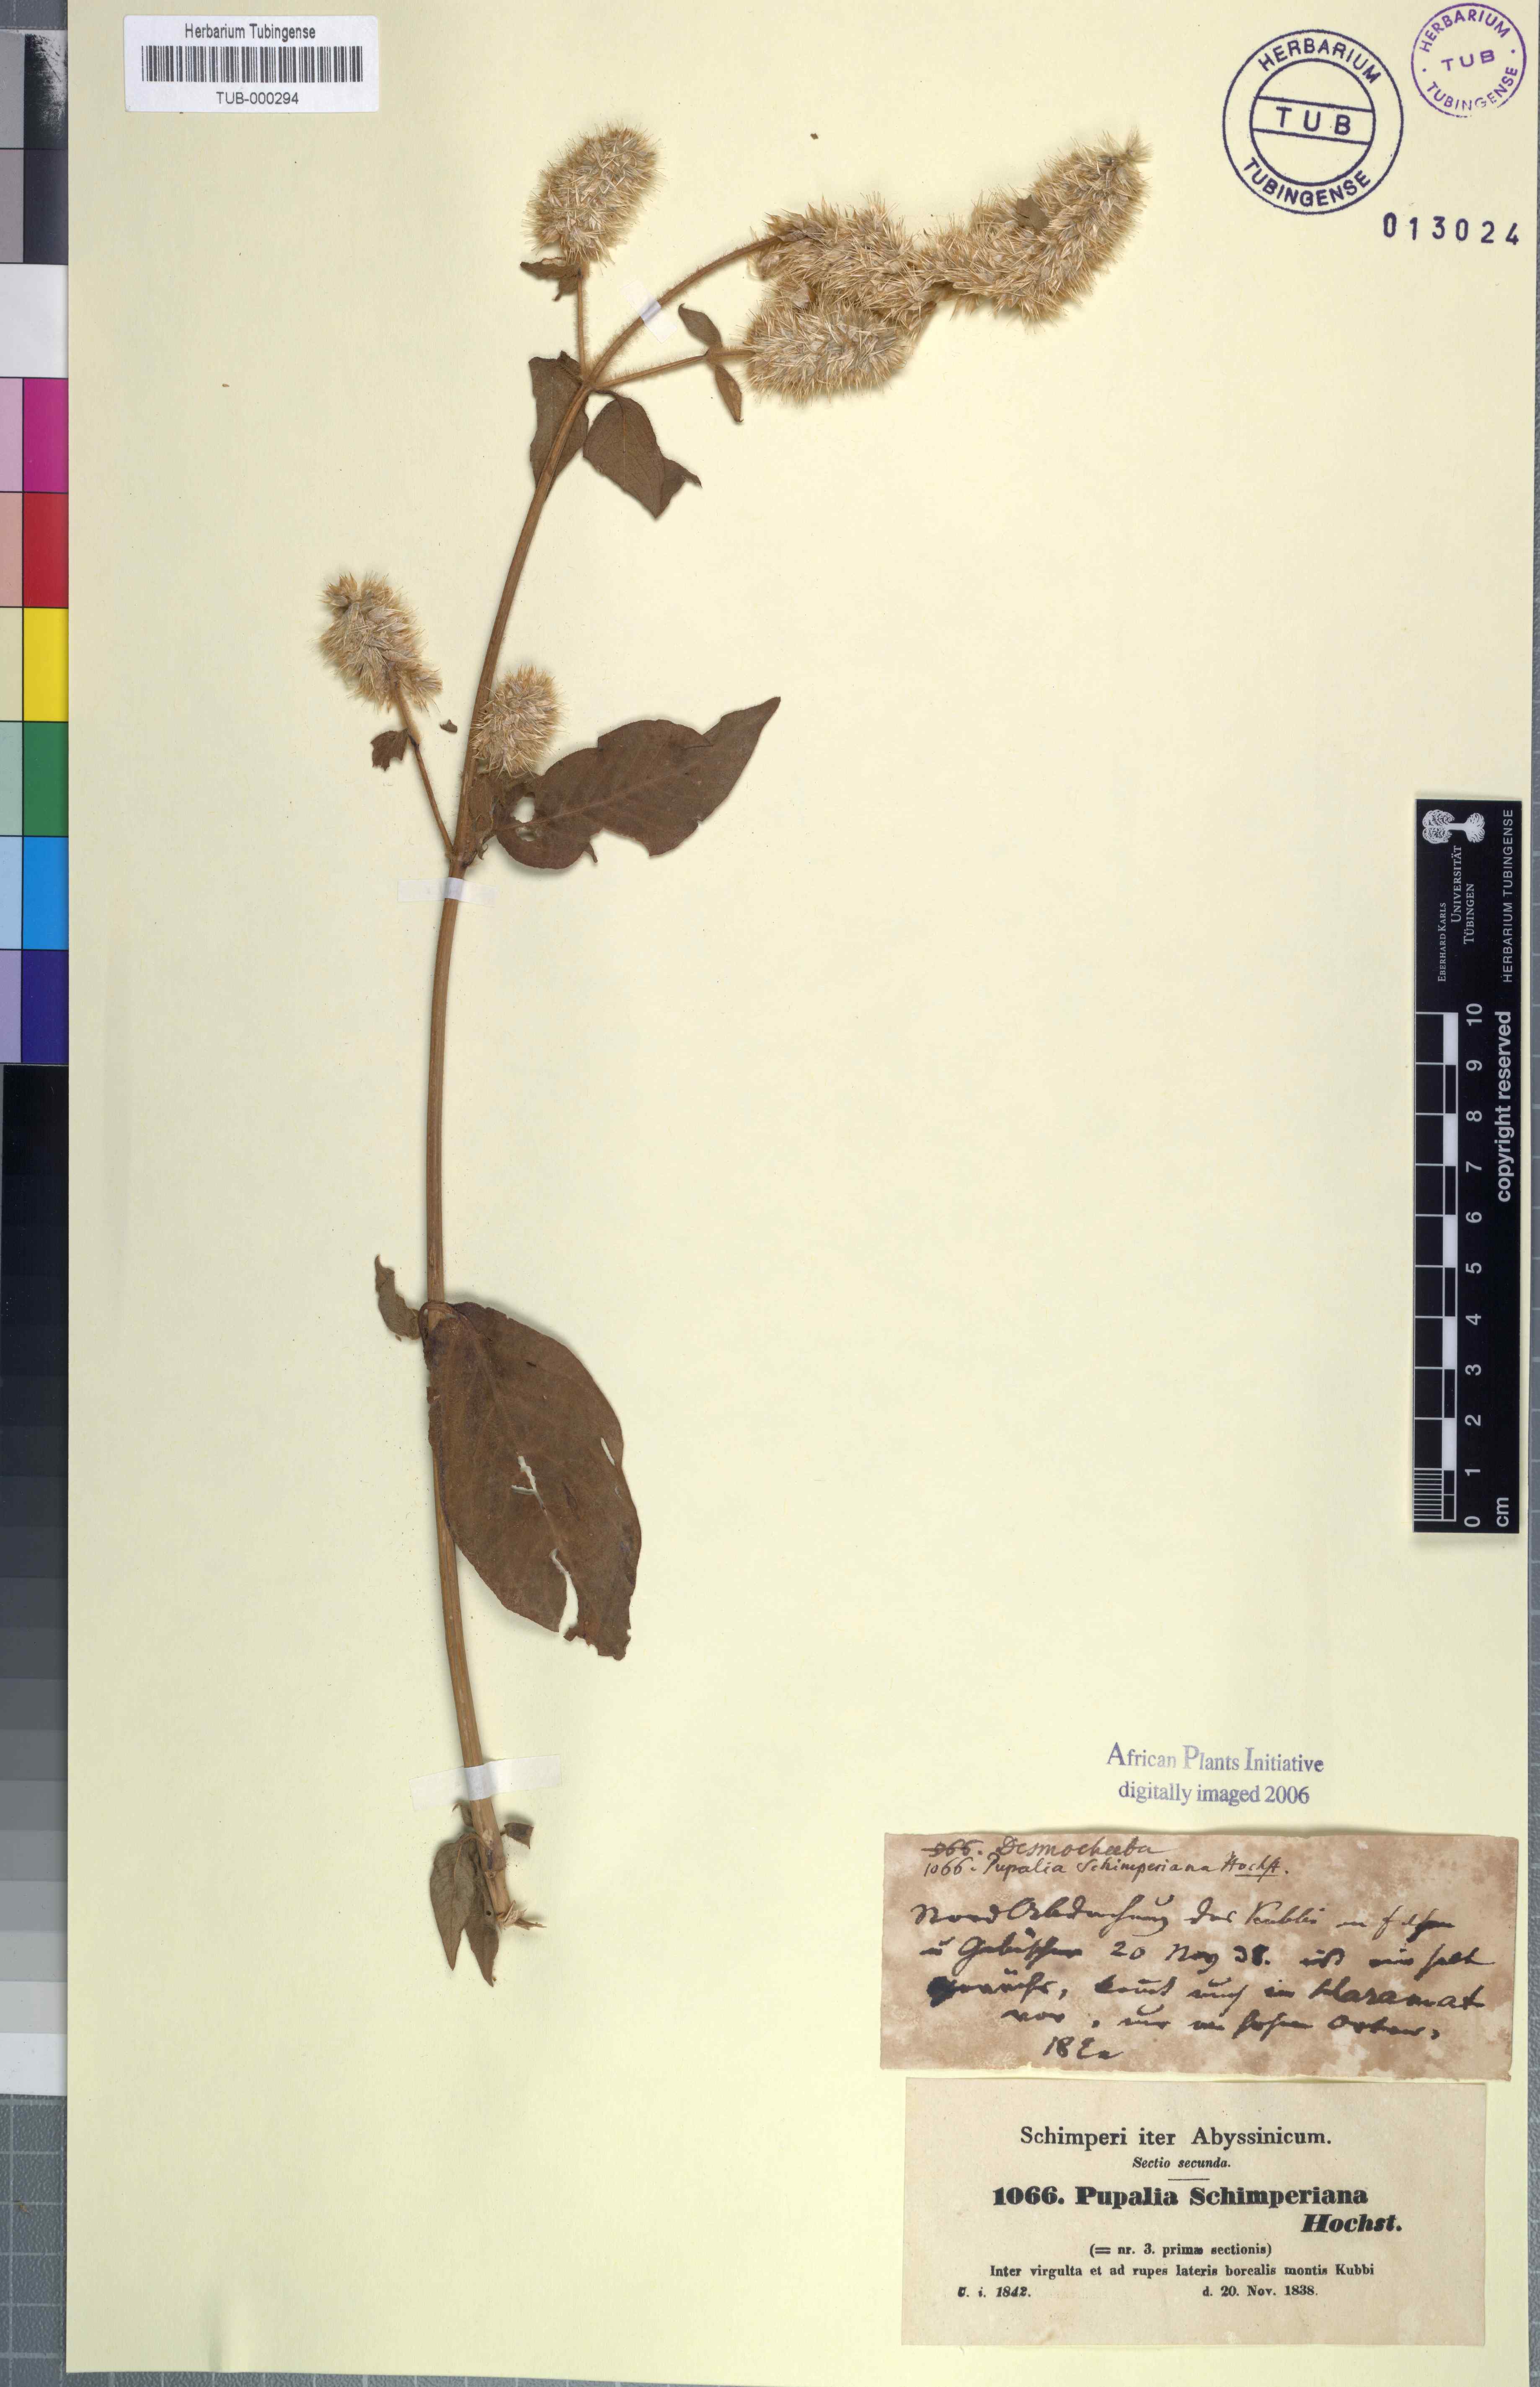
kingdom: Plantae
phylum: Tracheophyta
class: Magnoliopsida
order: Caryophyllales
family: Amaranthaceae
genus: Cyathula
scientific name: Cyathula cylindrica
